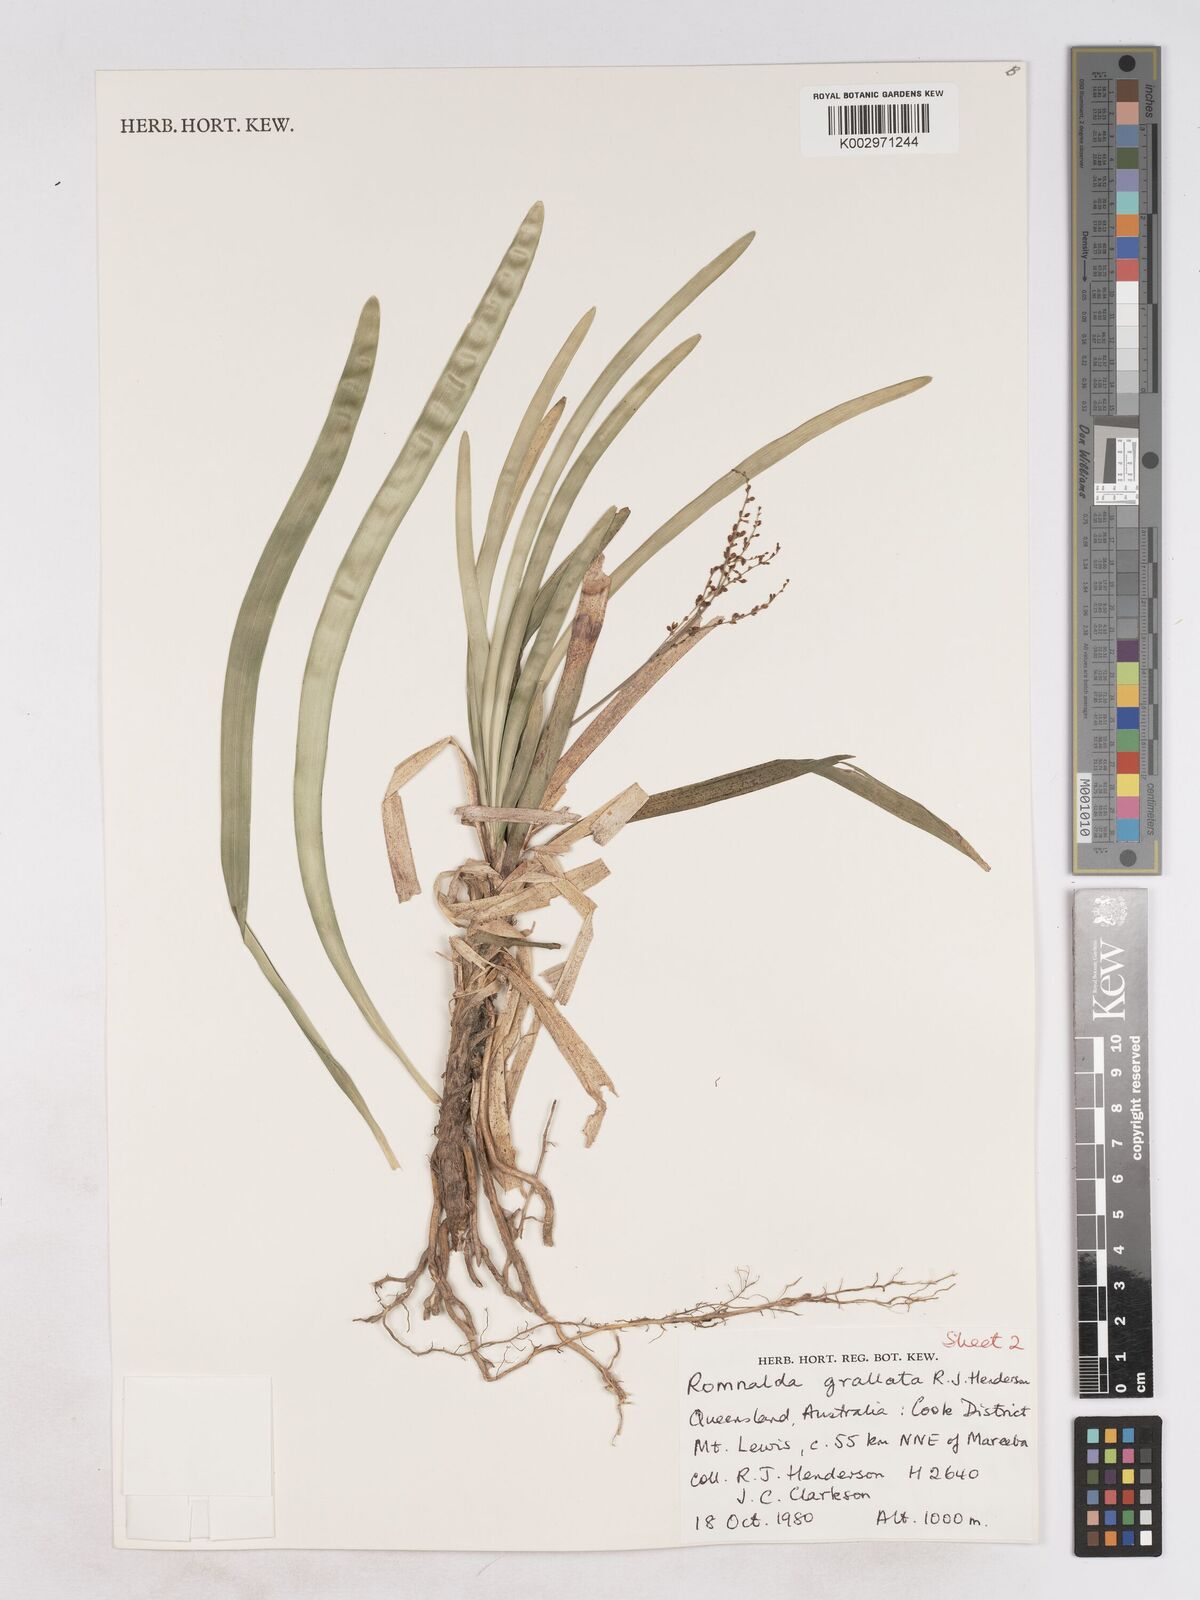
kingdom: Plantae
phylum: Tracheophyta
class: Liliopsida
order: Asparagales
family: Asparagaceae
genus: Romnalda
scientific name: Romnalda grallata
